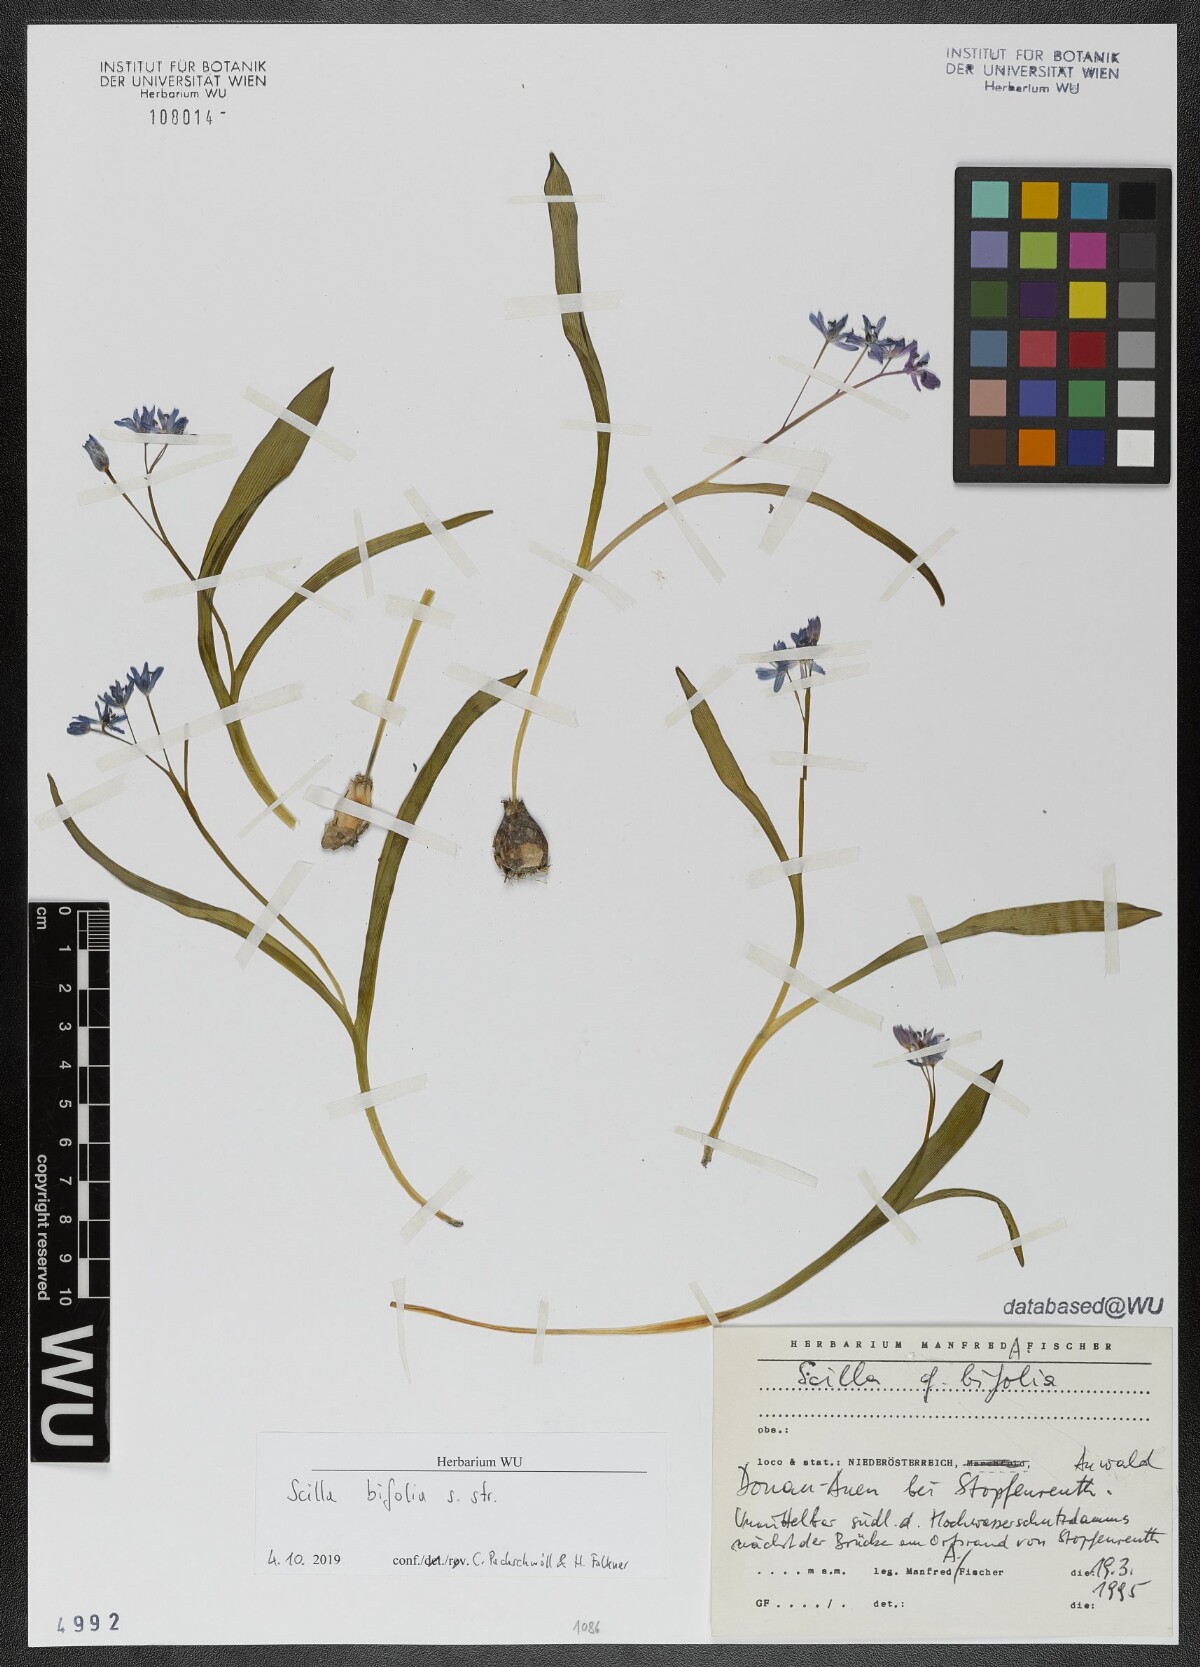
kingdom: Plantae
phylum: Tracheophyta
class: Liliopsida
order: Asparagales
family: Asparagaceae
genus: Scilla
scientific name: Scilla bifolia
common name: Alpine squill
